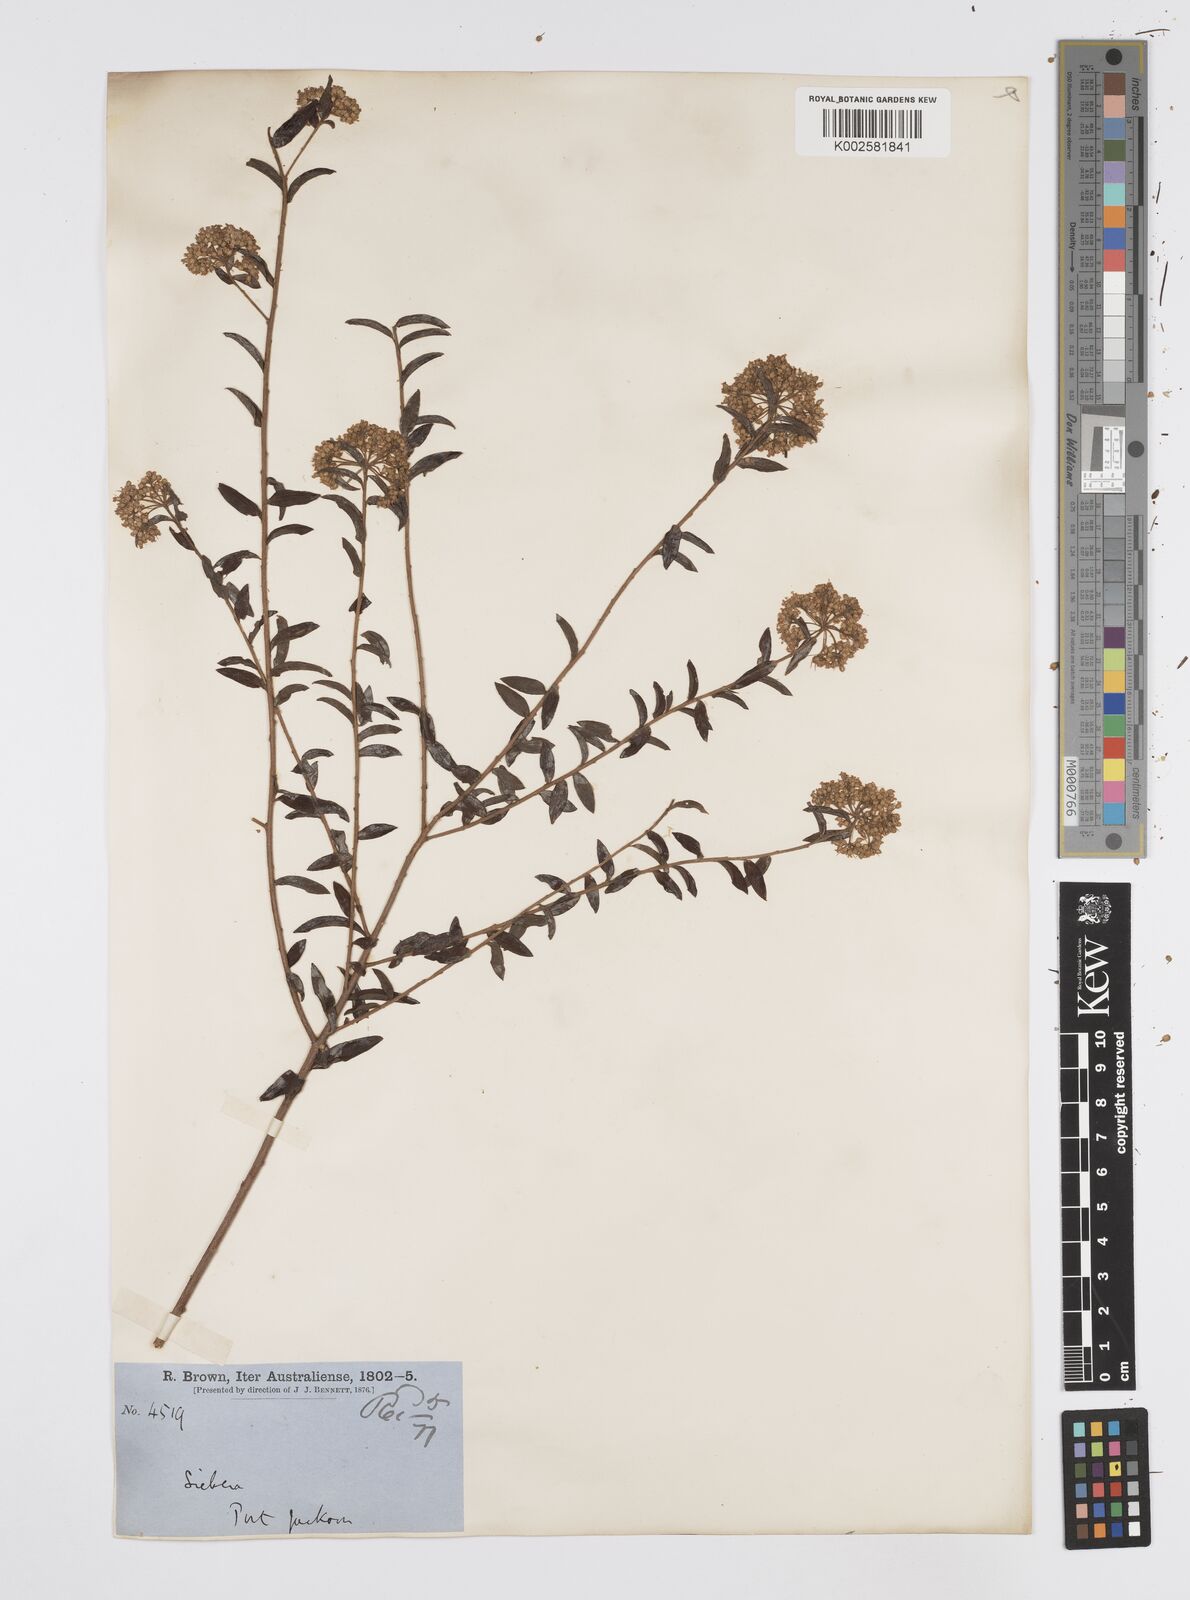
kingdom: Plantae
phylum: Tracheophyta
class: Magnoliopsida
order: Apiales
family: Apiaceae
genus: Platysace
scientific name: Platysace lanceolata
